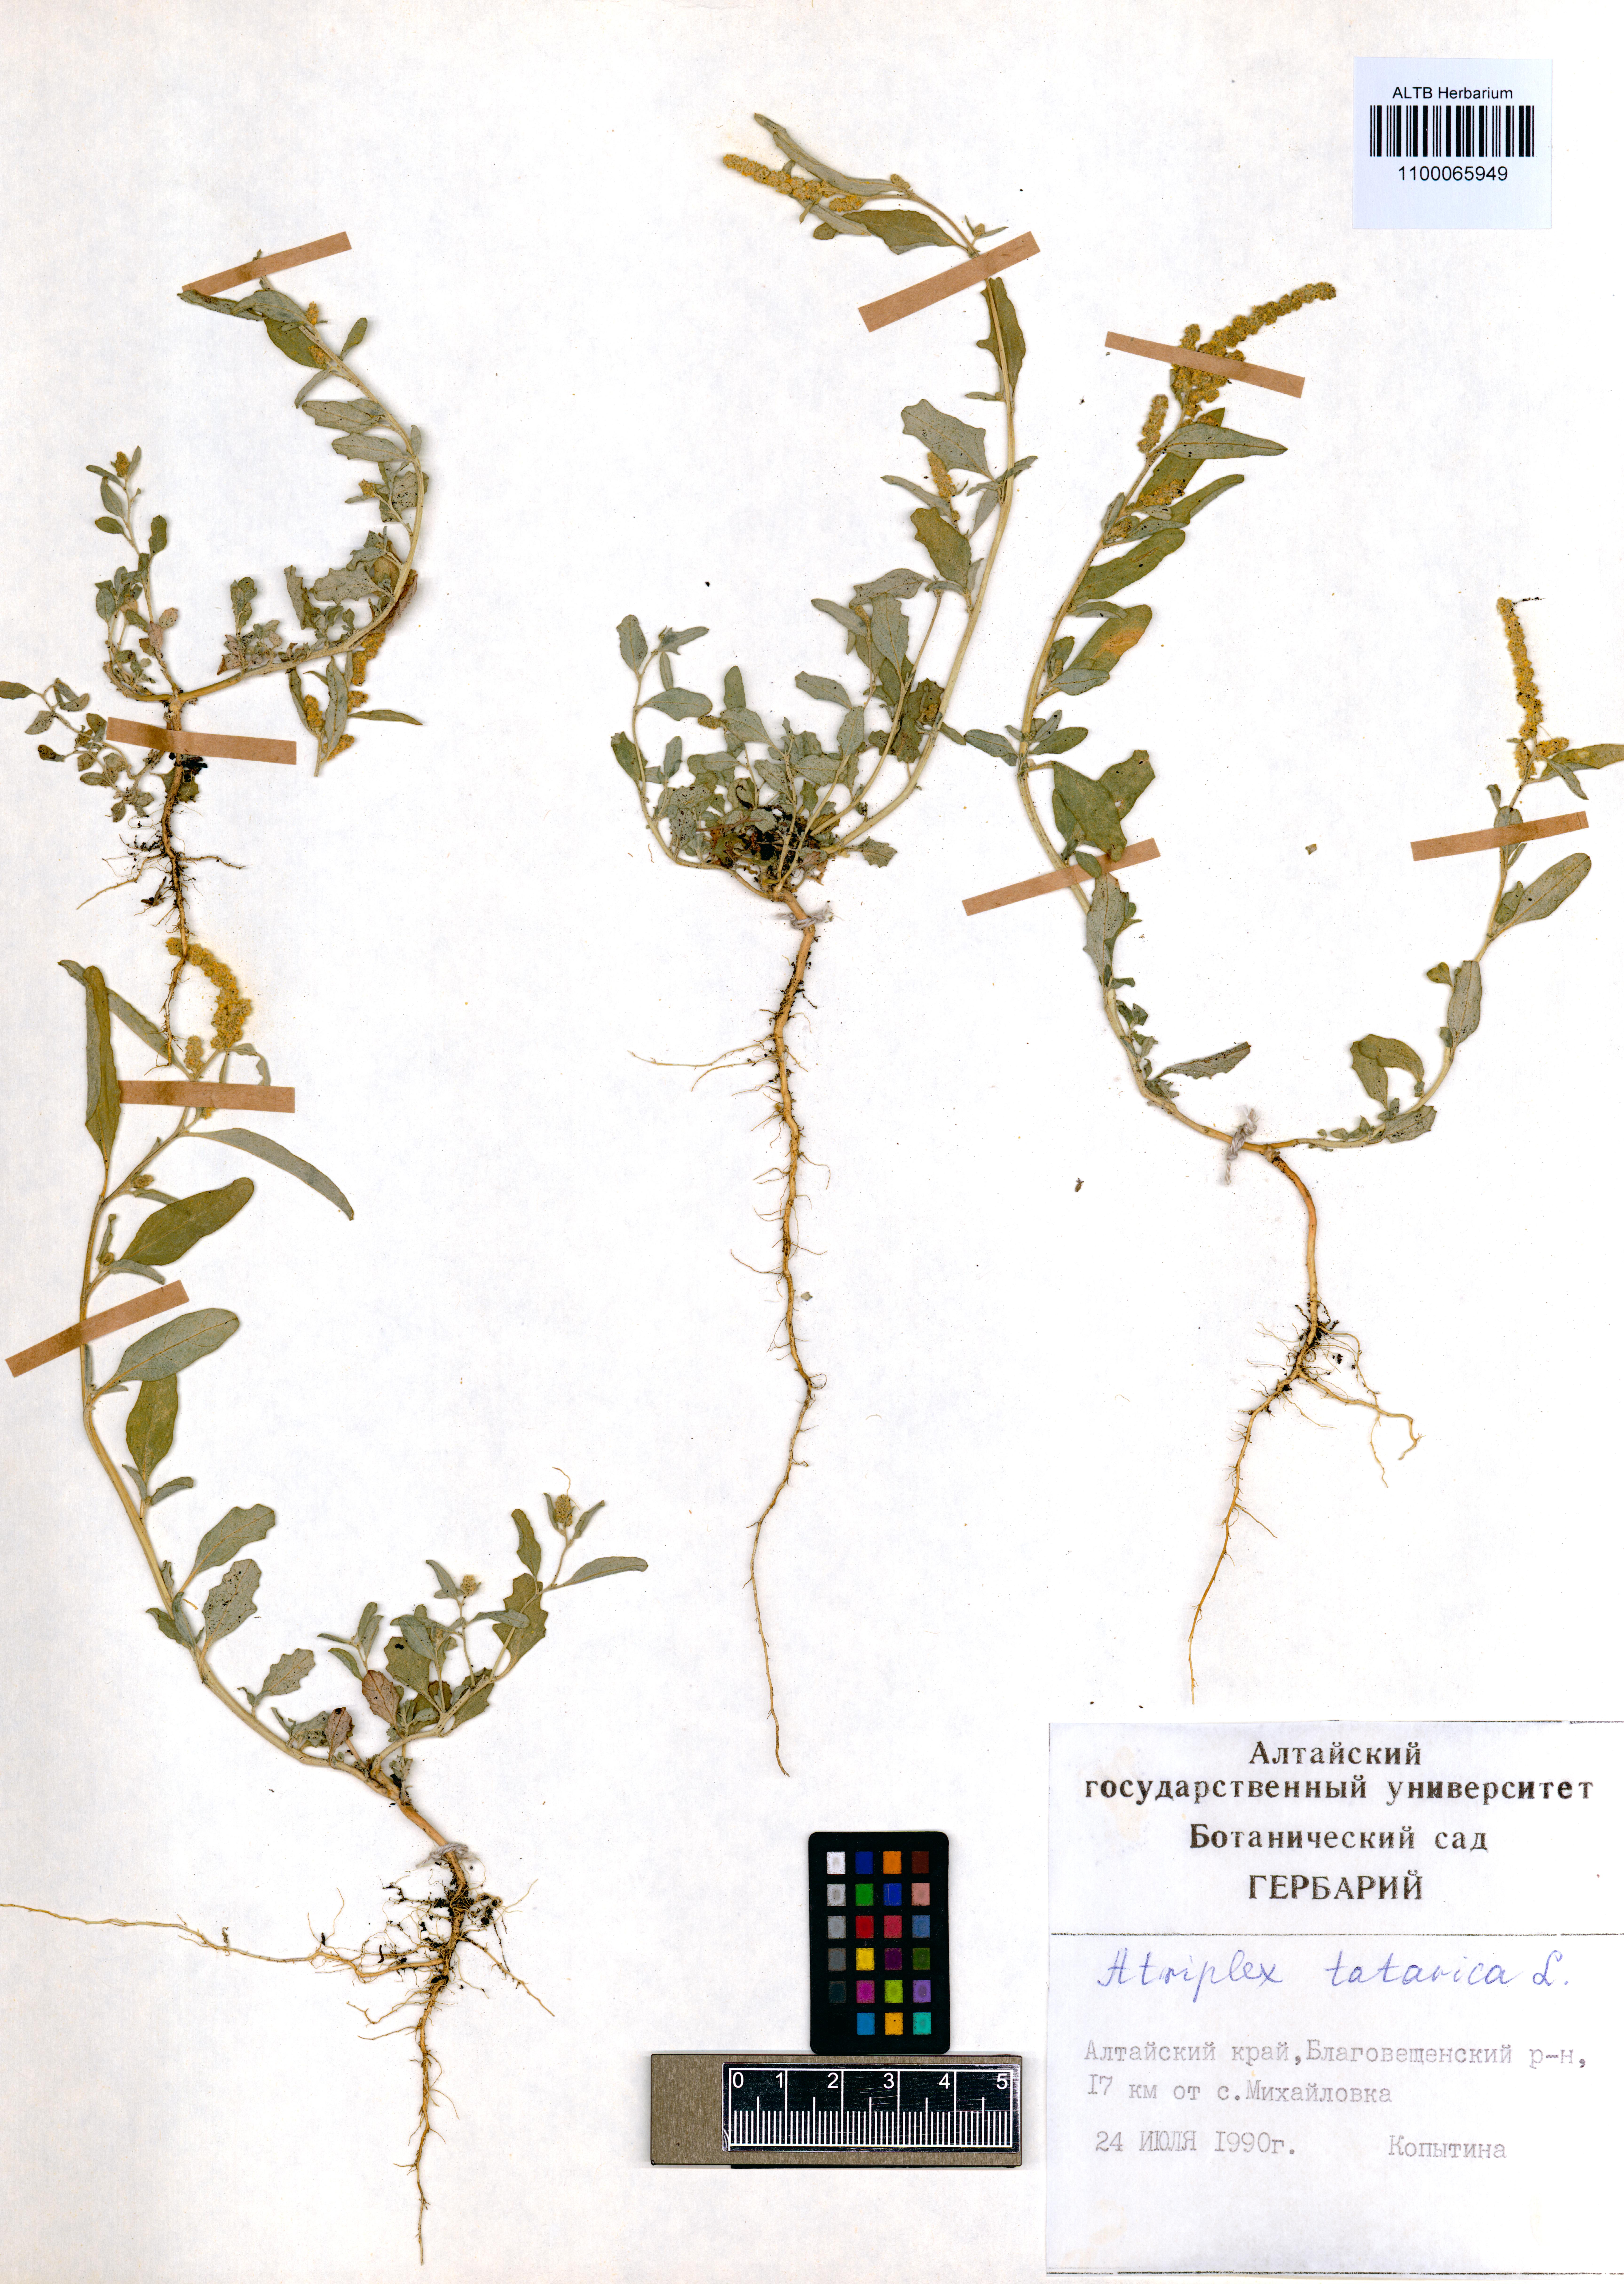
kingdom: Plantae
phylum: Tracheophyta
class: Magnoliopsida
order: Caryophyllales
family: Amaranthaceae
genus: Atriplex
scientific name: Atriplex tatarica
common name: Tatarian orache
